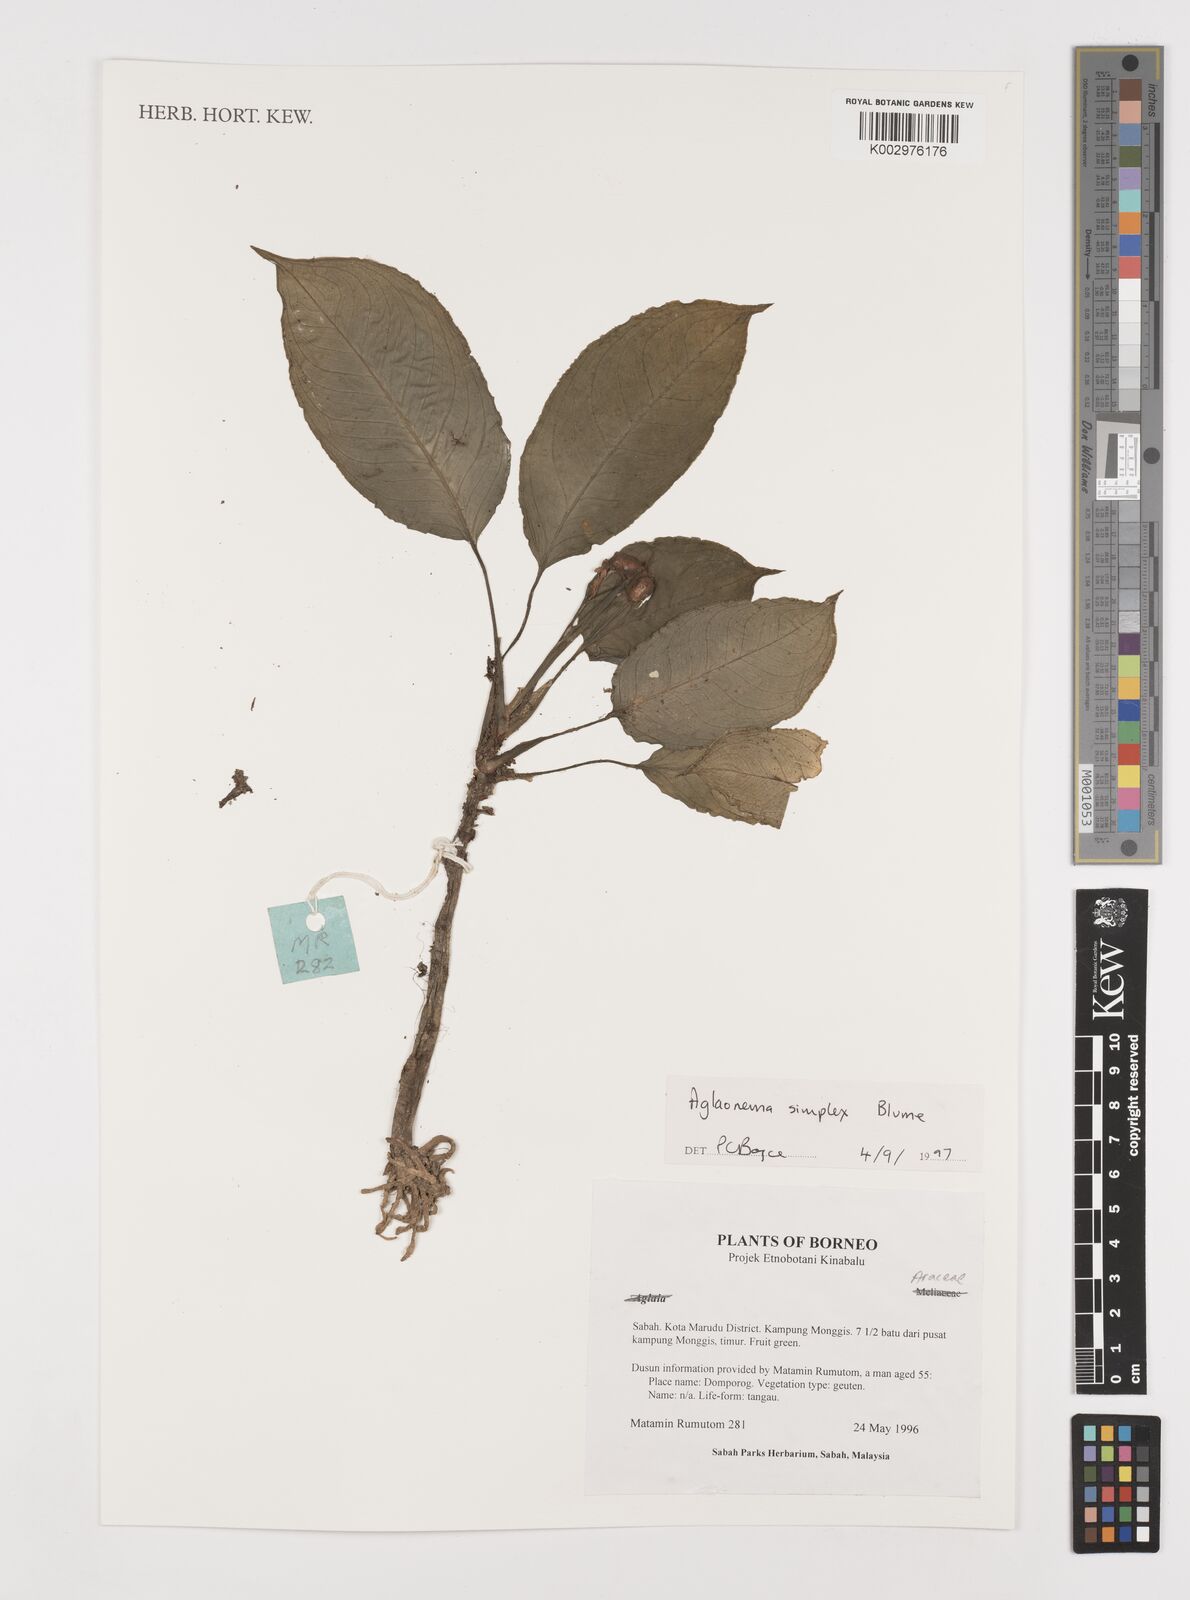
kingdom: Plantae
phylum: Tracheophyta
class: Liliopsida
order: Alismatales
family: Araceae
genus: Aglaonema
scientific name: Aglaonema simplex
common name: Malayan-sword
